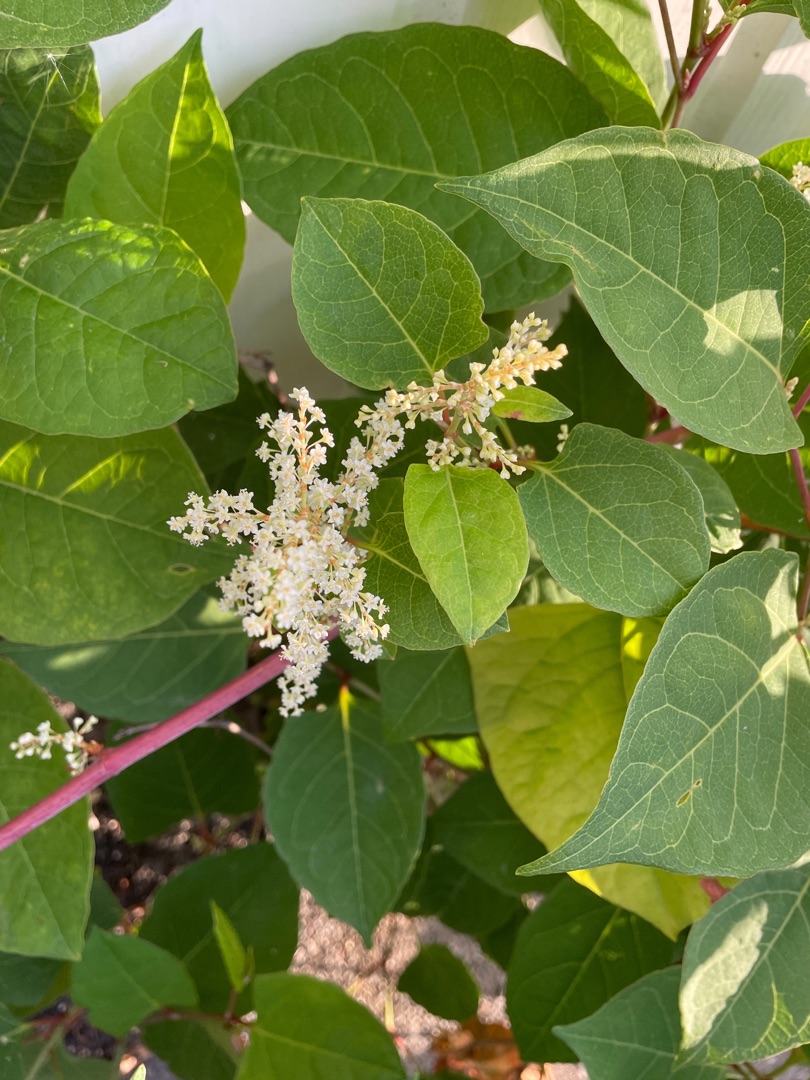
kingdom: Plantae
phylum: Tracheophyta
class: Magnoliopsida
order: Caryophyllales
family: Polygonaceae
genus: Reynoutria
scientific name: Reynoutria japonica
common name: Japan-pileurt
